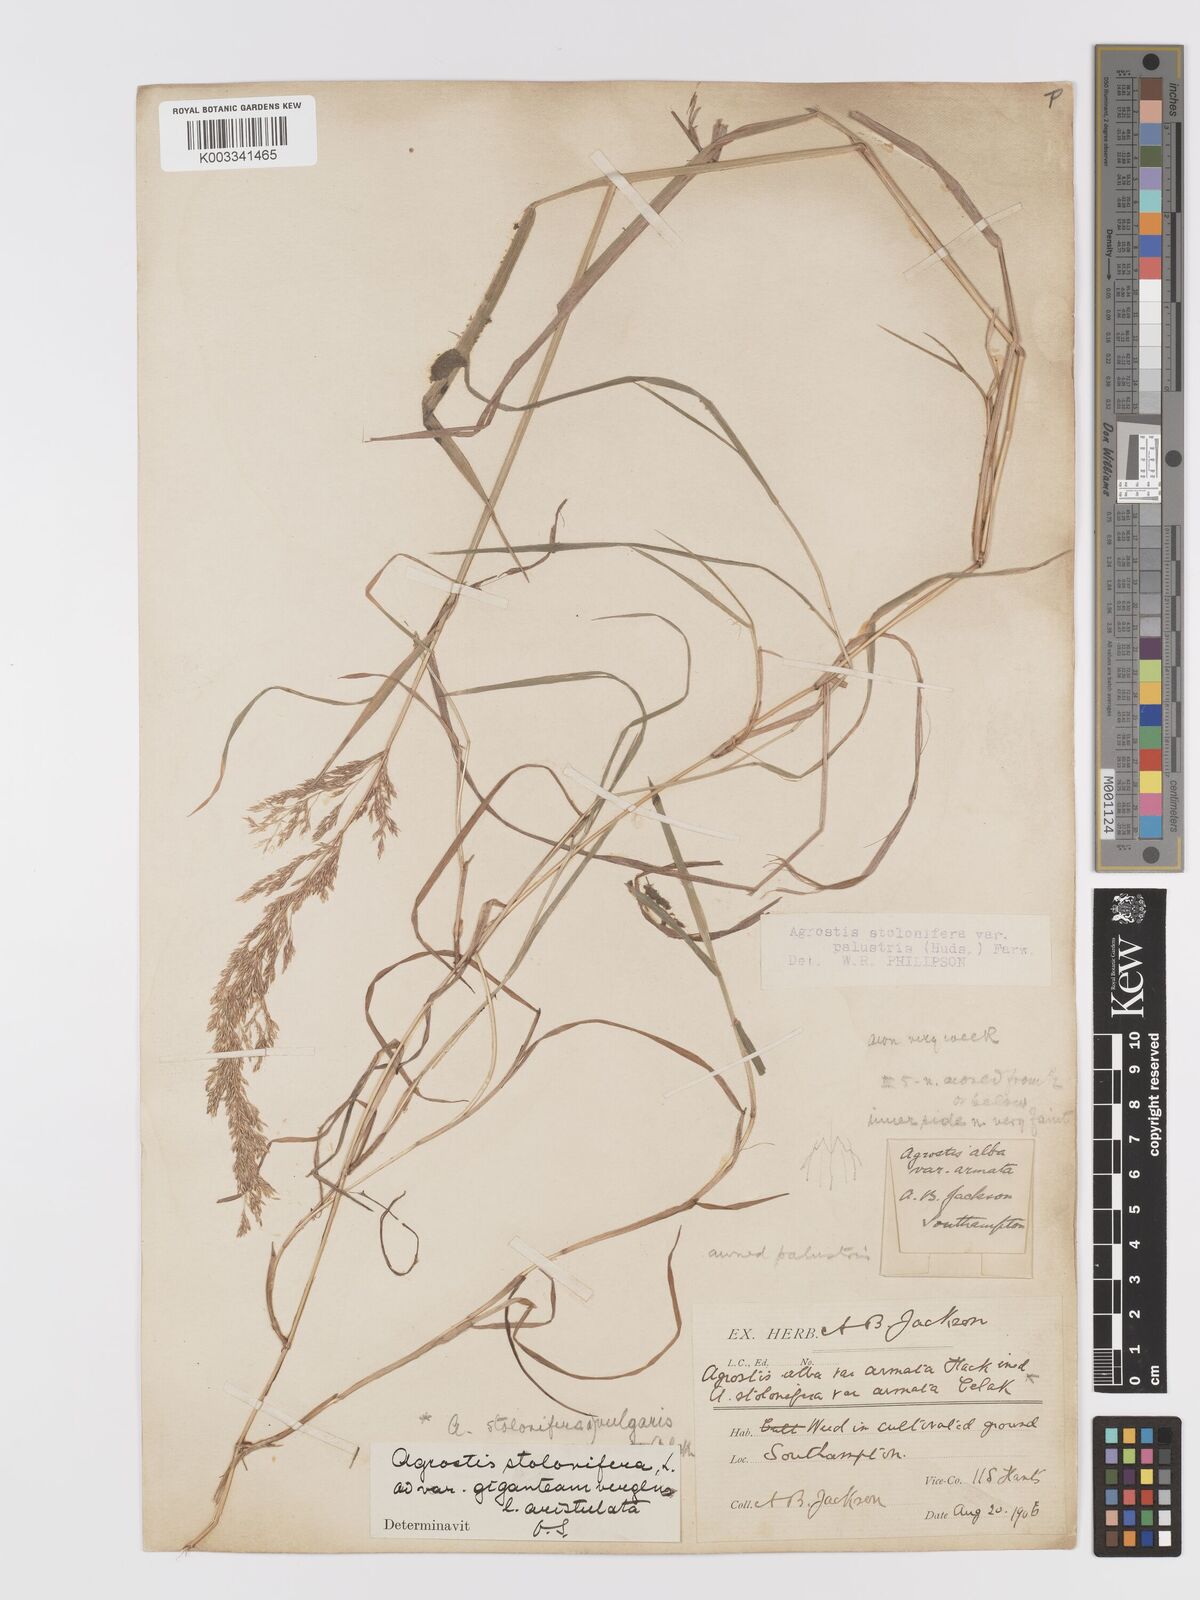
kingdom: Plantae
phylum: Tracheophyta
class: Liliopsida
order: Poales
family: Poaceae
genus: Agrostis
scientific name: Agrostis stolonifera
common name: Creeping bentgrass
